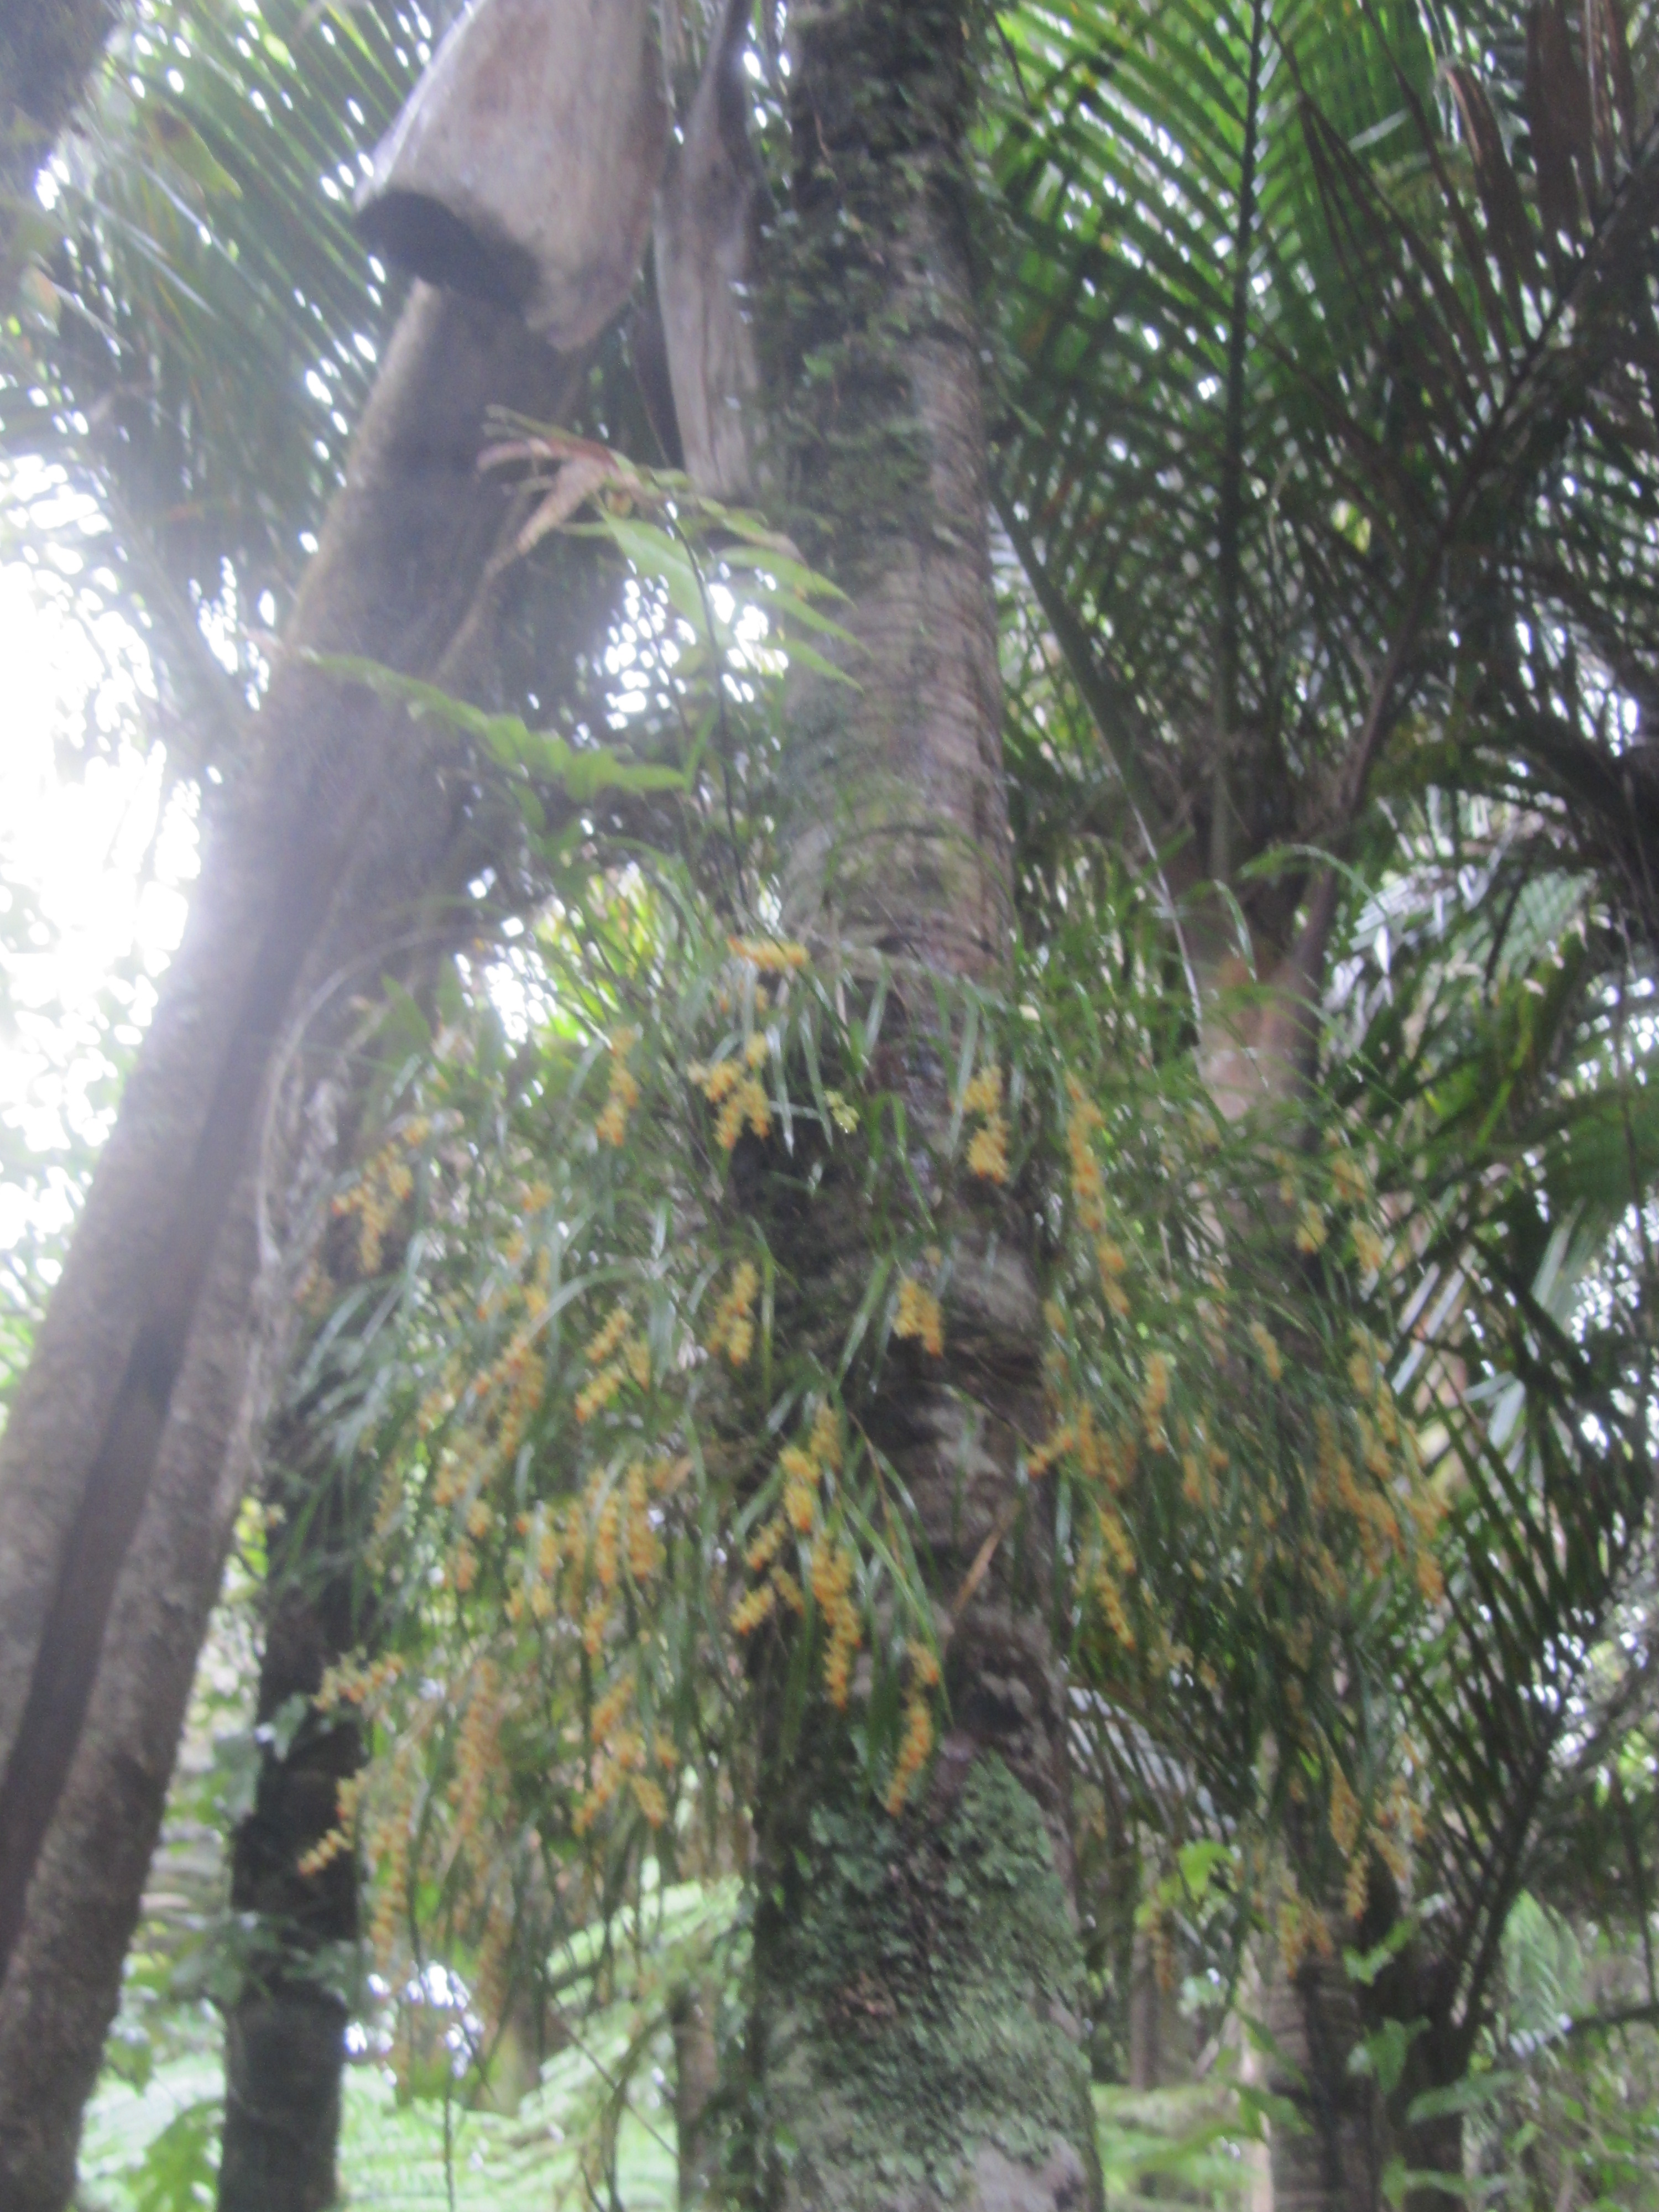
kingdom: Plantae
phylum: Tracheophyta
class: Liliopsida
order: Asparagales
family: Orchidaceae
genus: Earina
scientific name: Earina aestivalis
